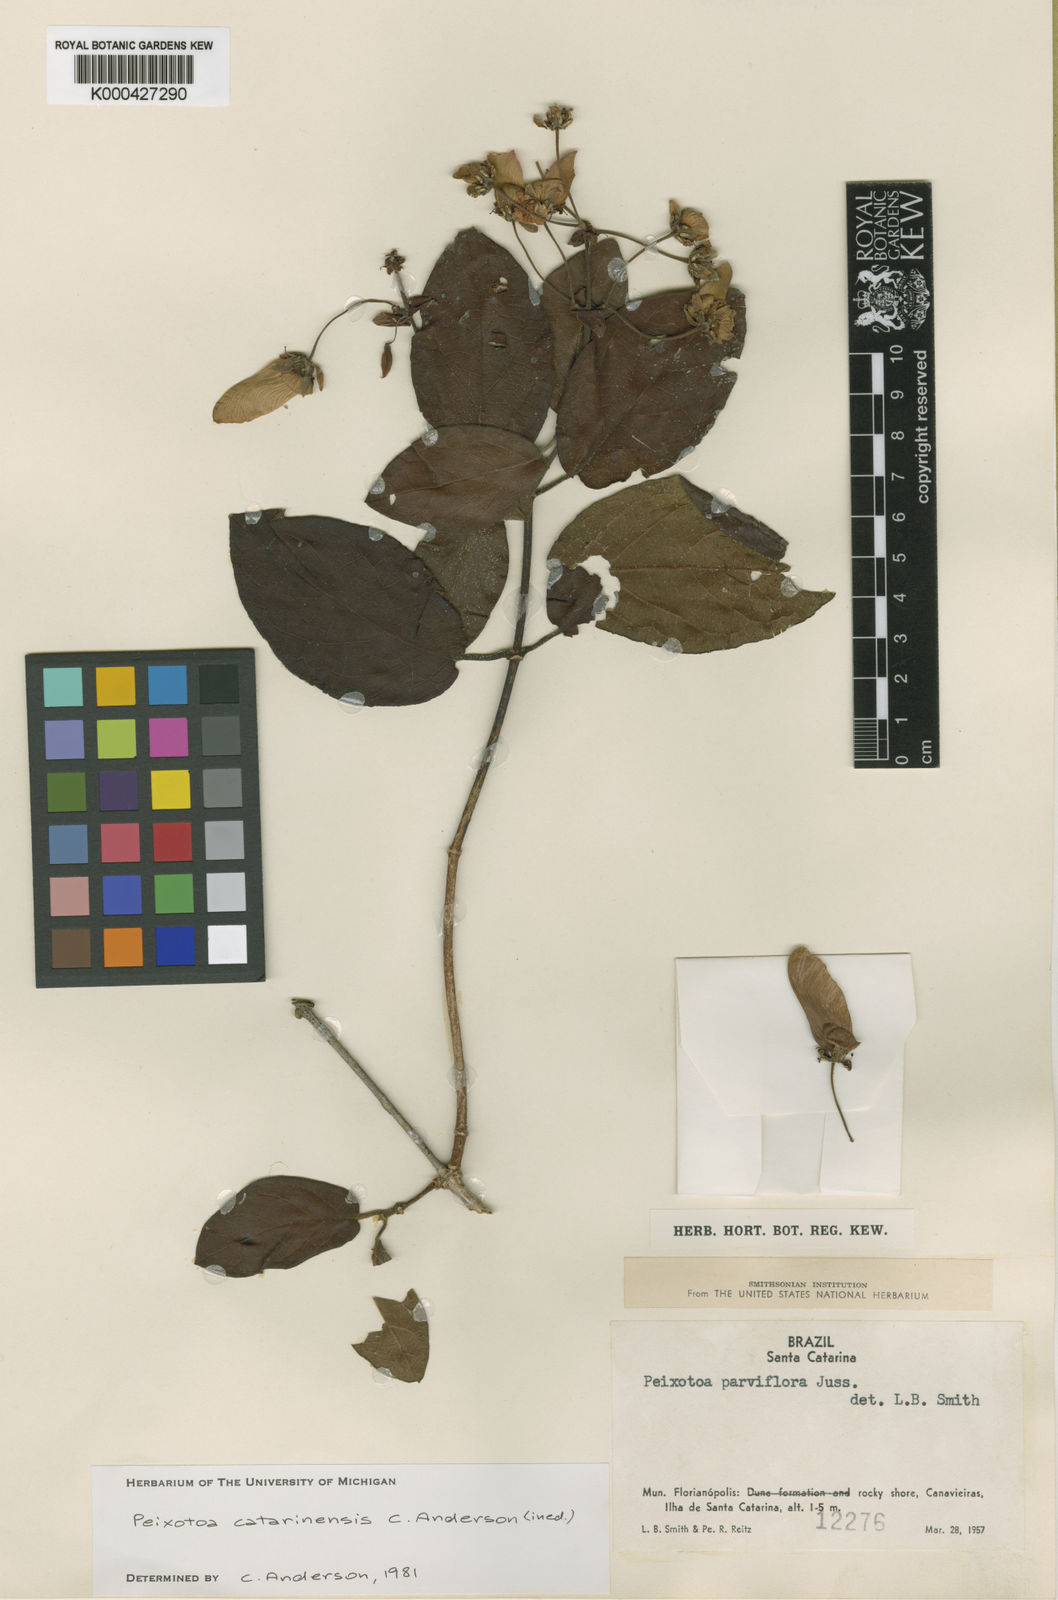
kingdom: Plantae
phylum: Tracheophyta
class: Magnoliopsida
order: Malpighiales
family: Malpighiaceae
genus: Peixotoa
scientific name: Peixotoa parviflora
